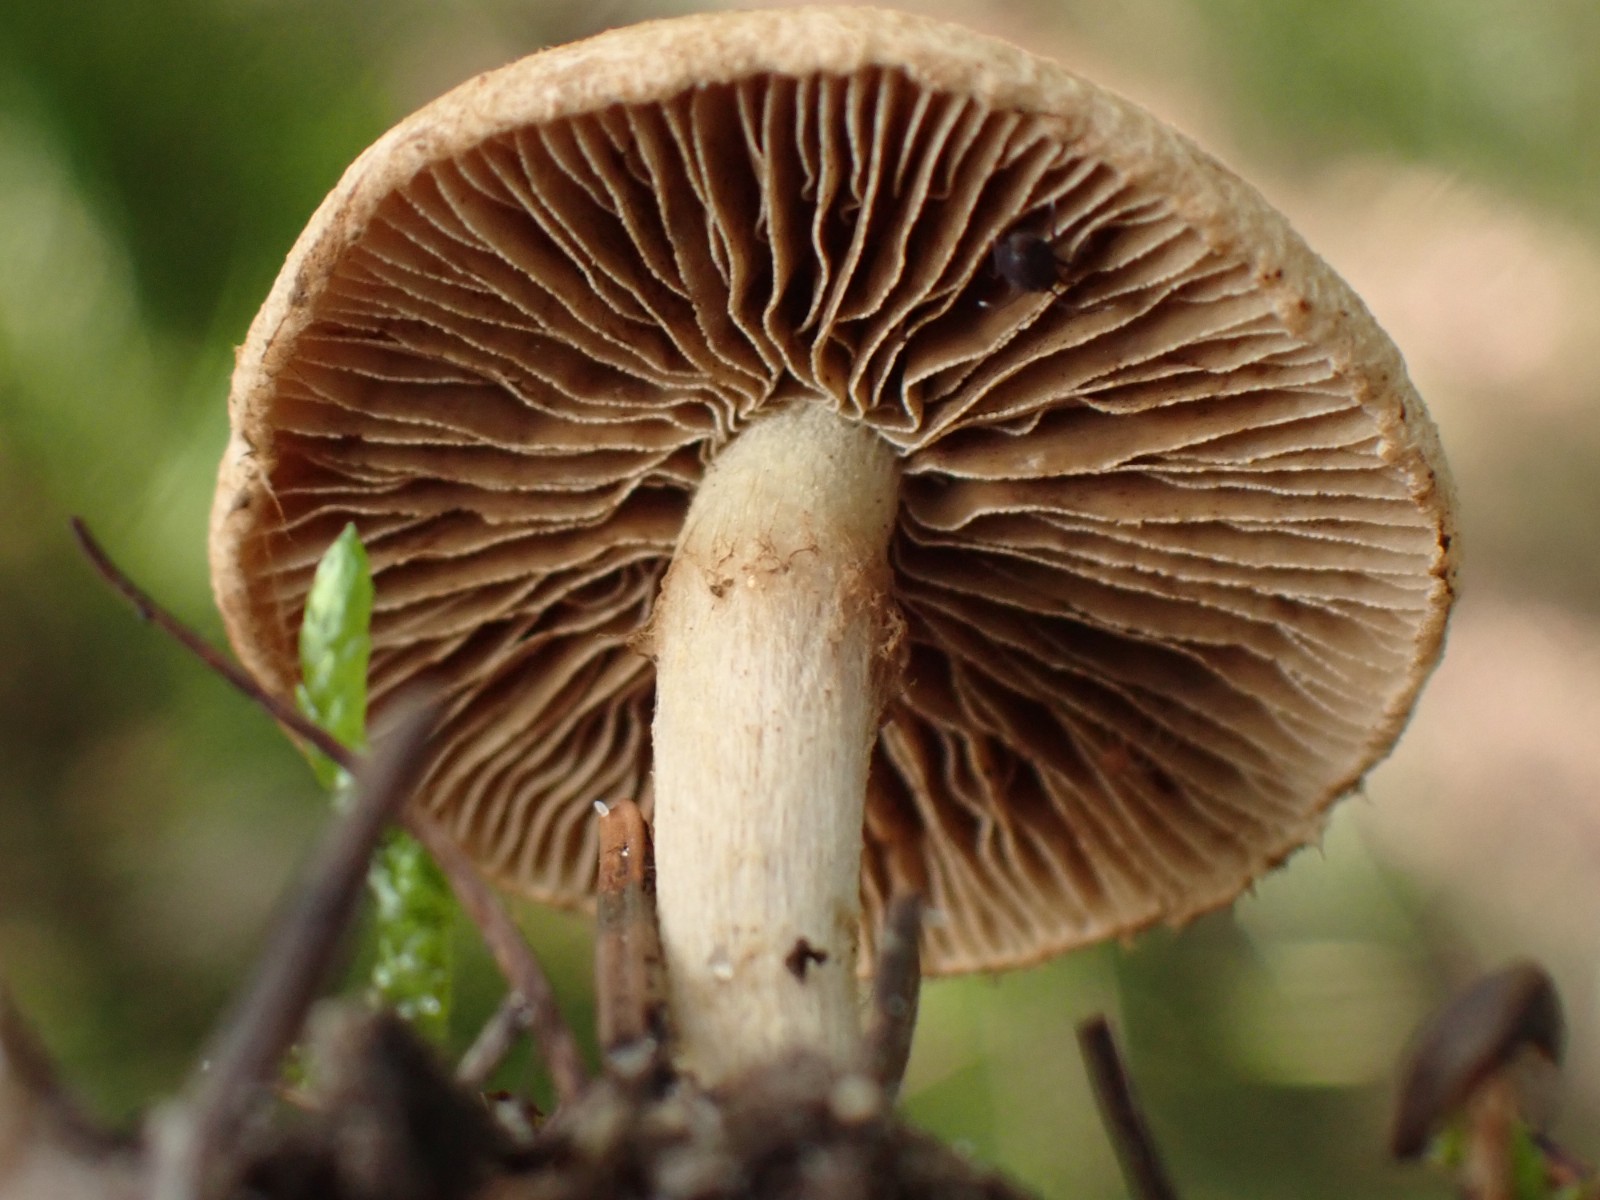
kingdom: Fungi
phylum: Basidiomycota
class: Agaricomycetes
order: Agaricales
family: Inocybaceae
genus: Mallocybe
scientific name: Mallocybe
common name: Trævlhat
